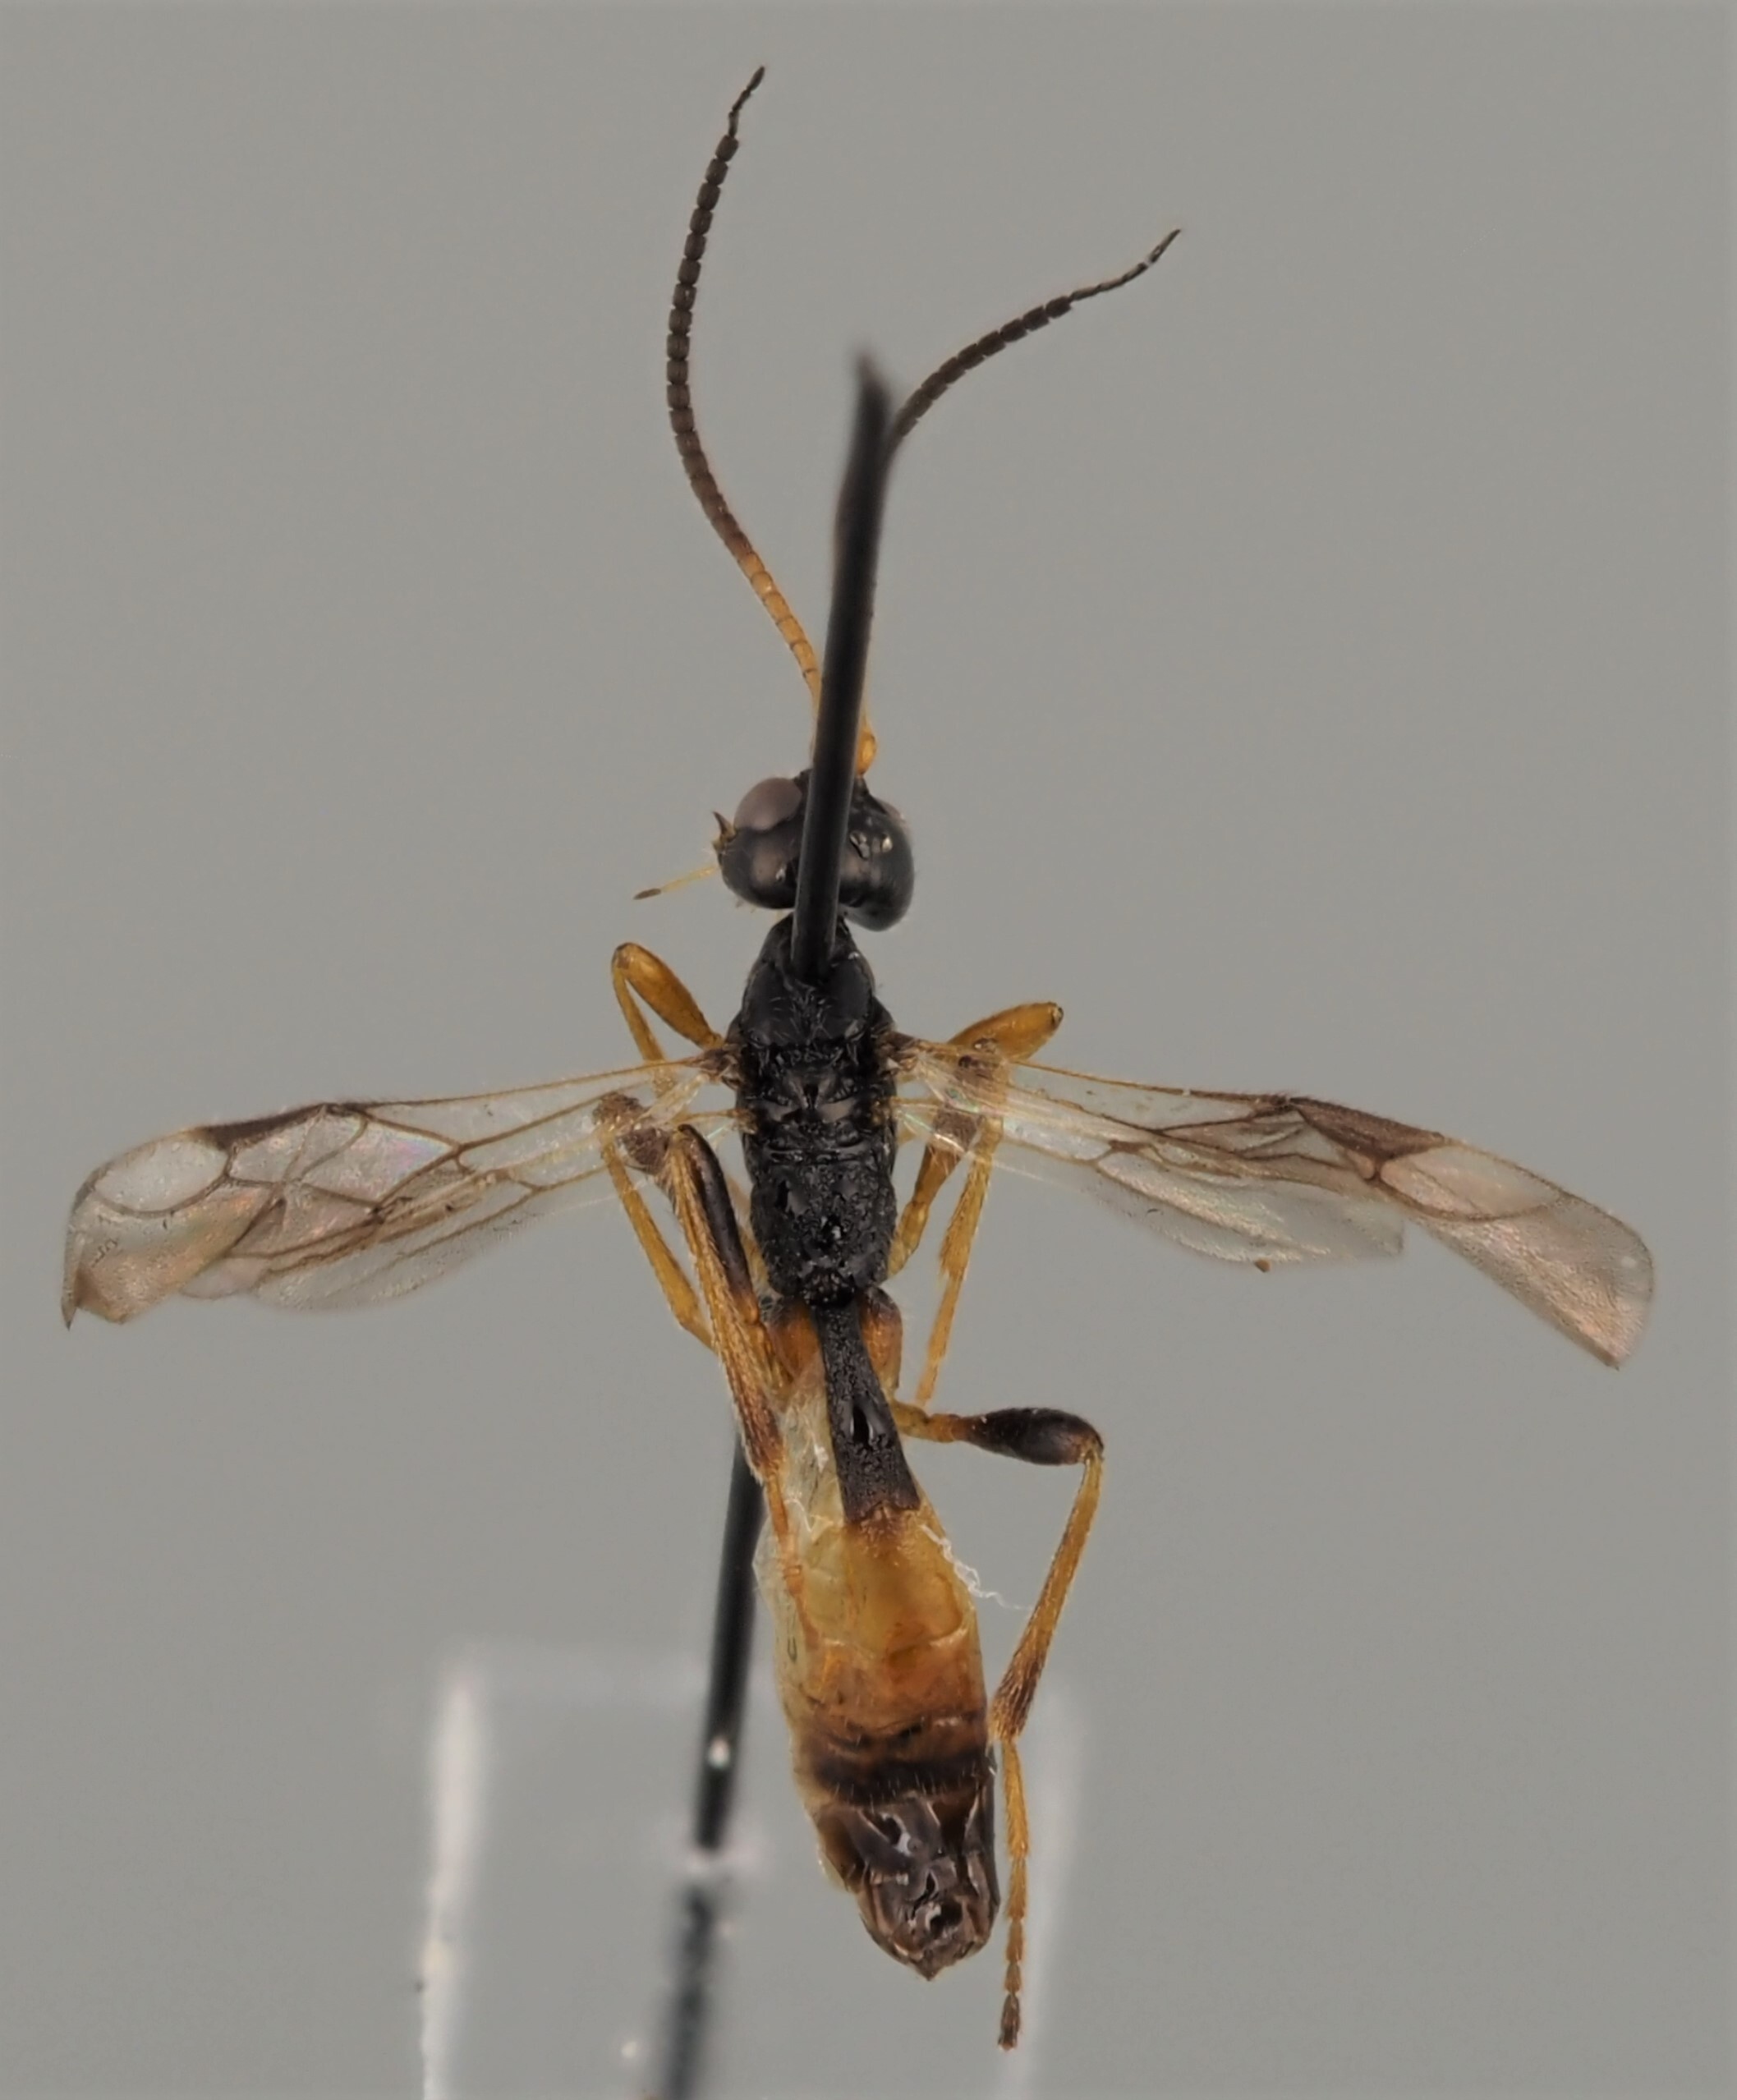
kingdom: Animalia
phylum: Arthropoda
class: Insecta
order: Hymenoptera
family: Braconidae
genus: Coelinidea
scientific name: Coelinidea elegans
